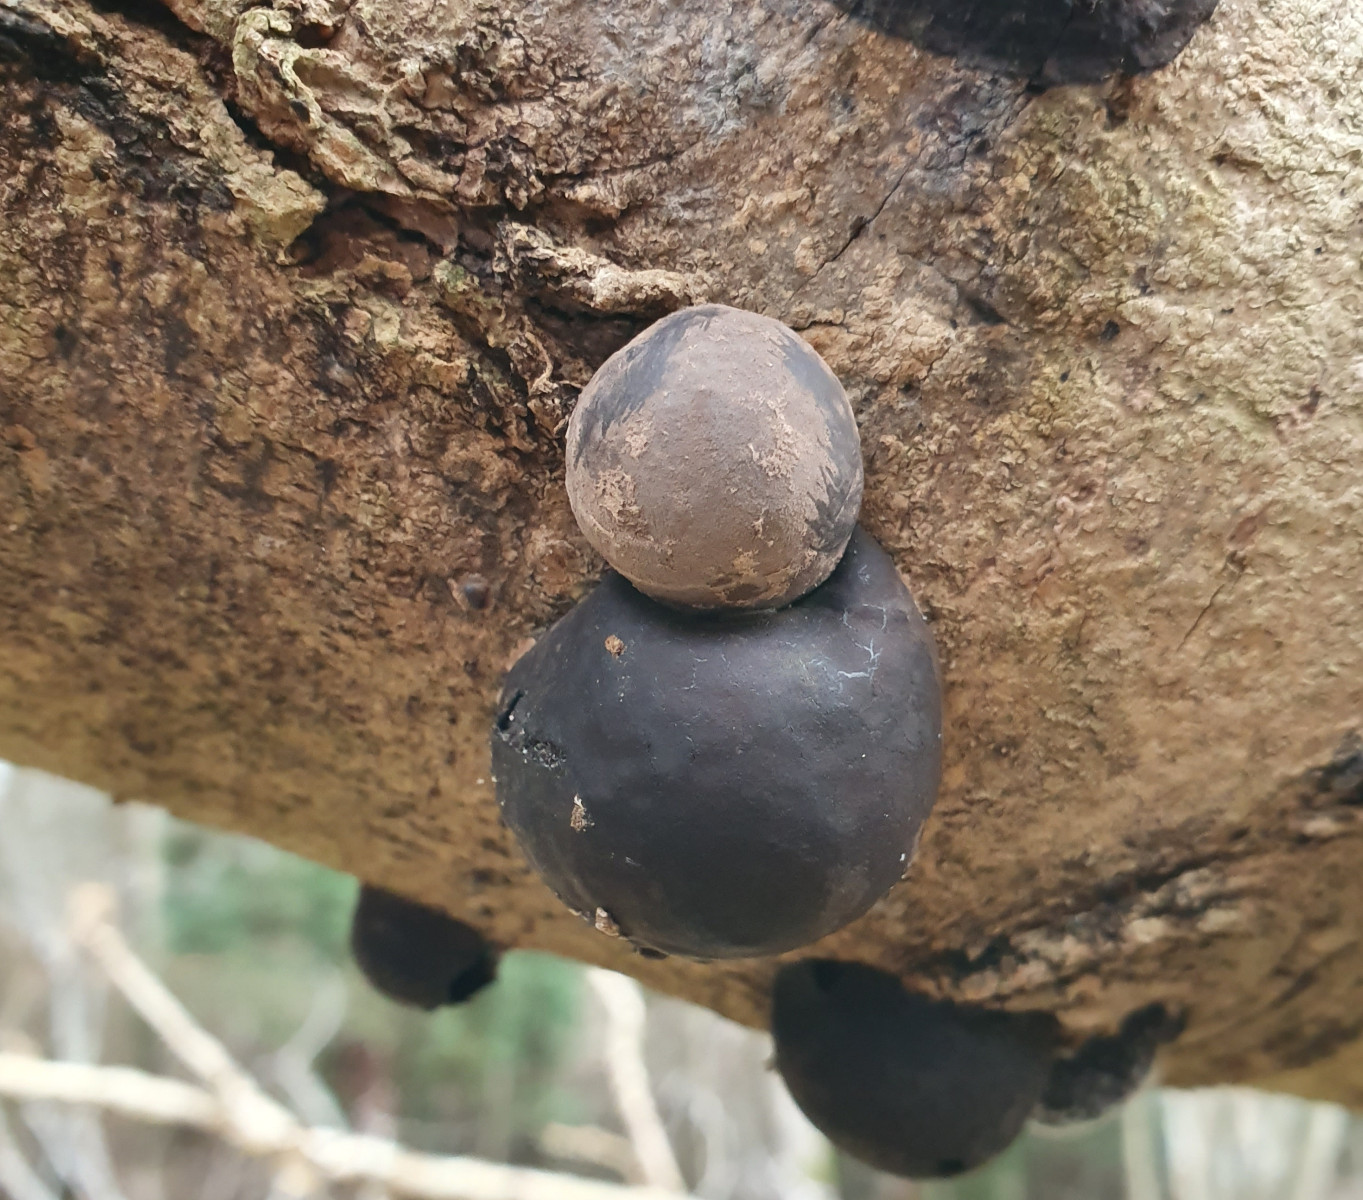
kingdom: Fungi
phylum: Ascomycota
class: Sordariomycetes
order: Xylariales
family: Hypoxylaceae
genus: Daldinia
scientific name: Daldinia concentrica
